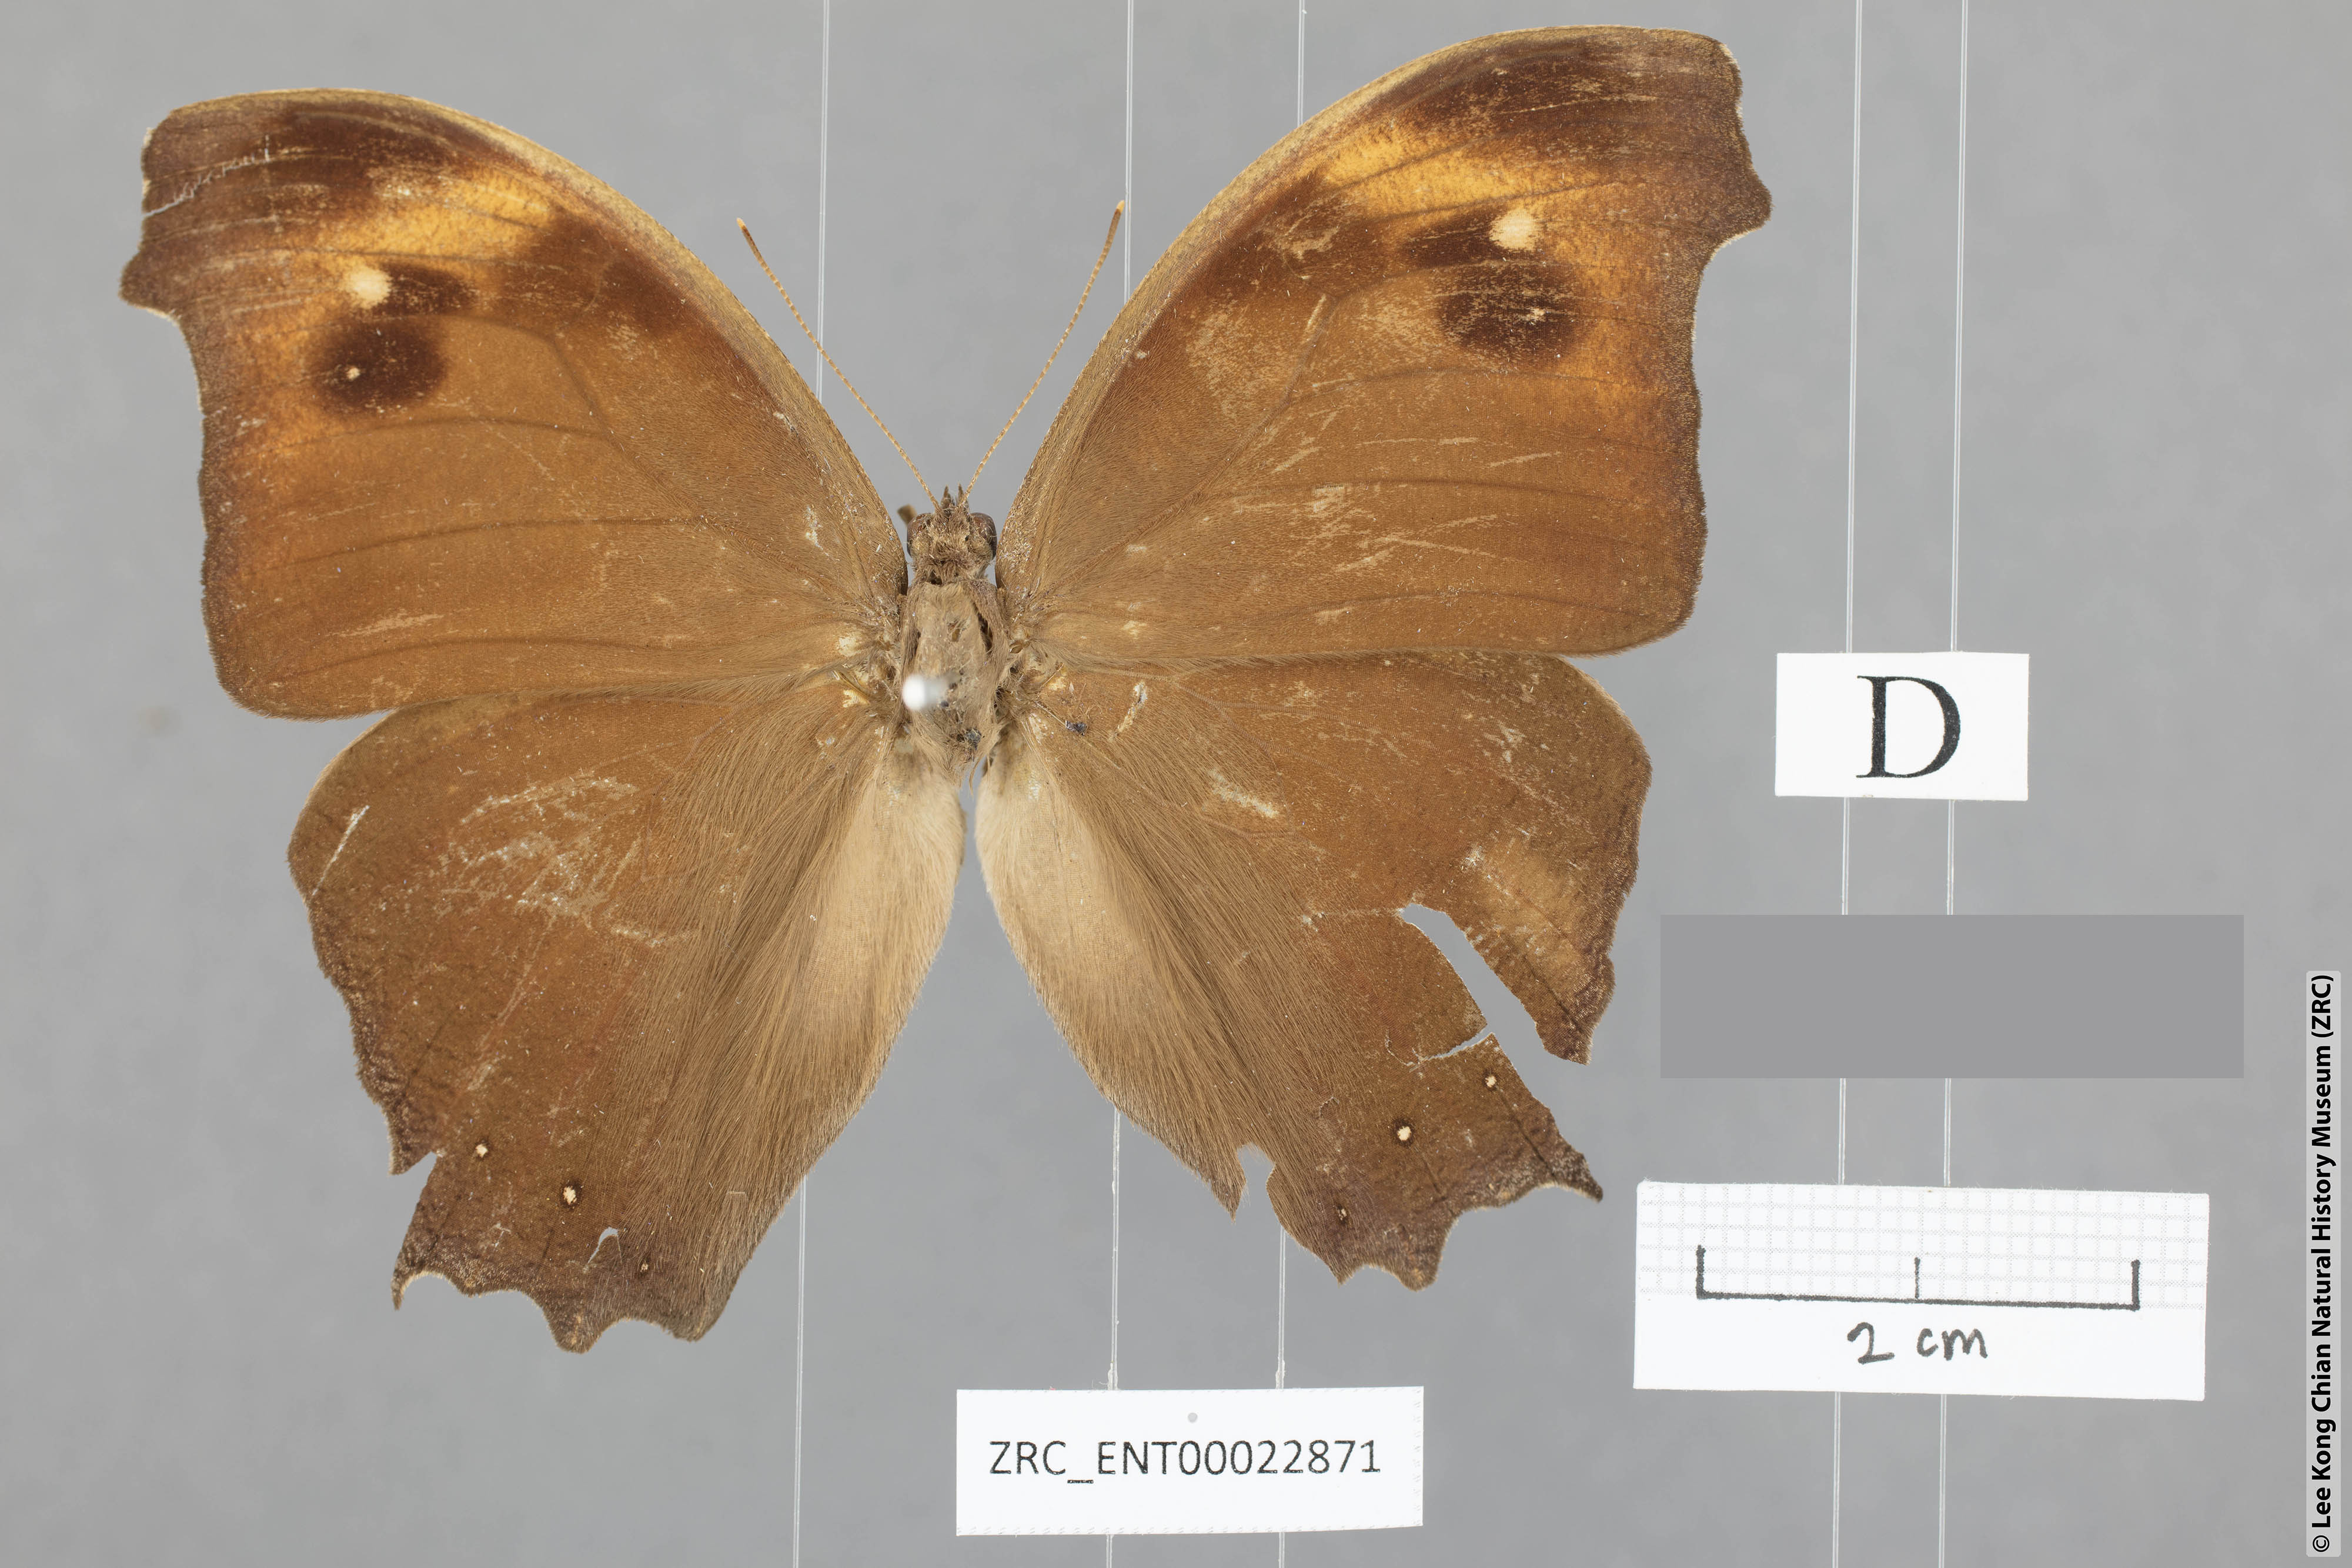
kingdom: Animalia
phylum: Arthropoda
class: Insecta
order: Lepidoptera
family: Nymphalidae
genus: Melanitis
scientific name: Melanitis zitenius
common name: Great evening brown
